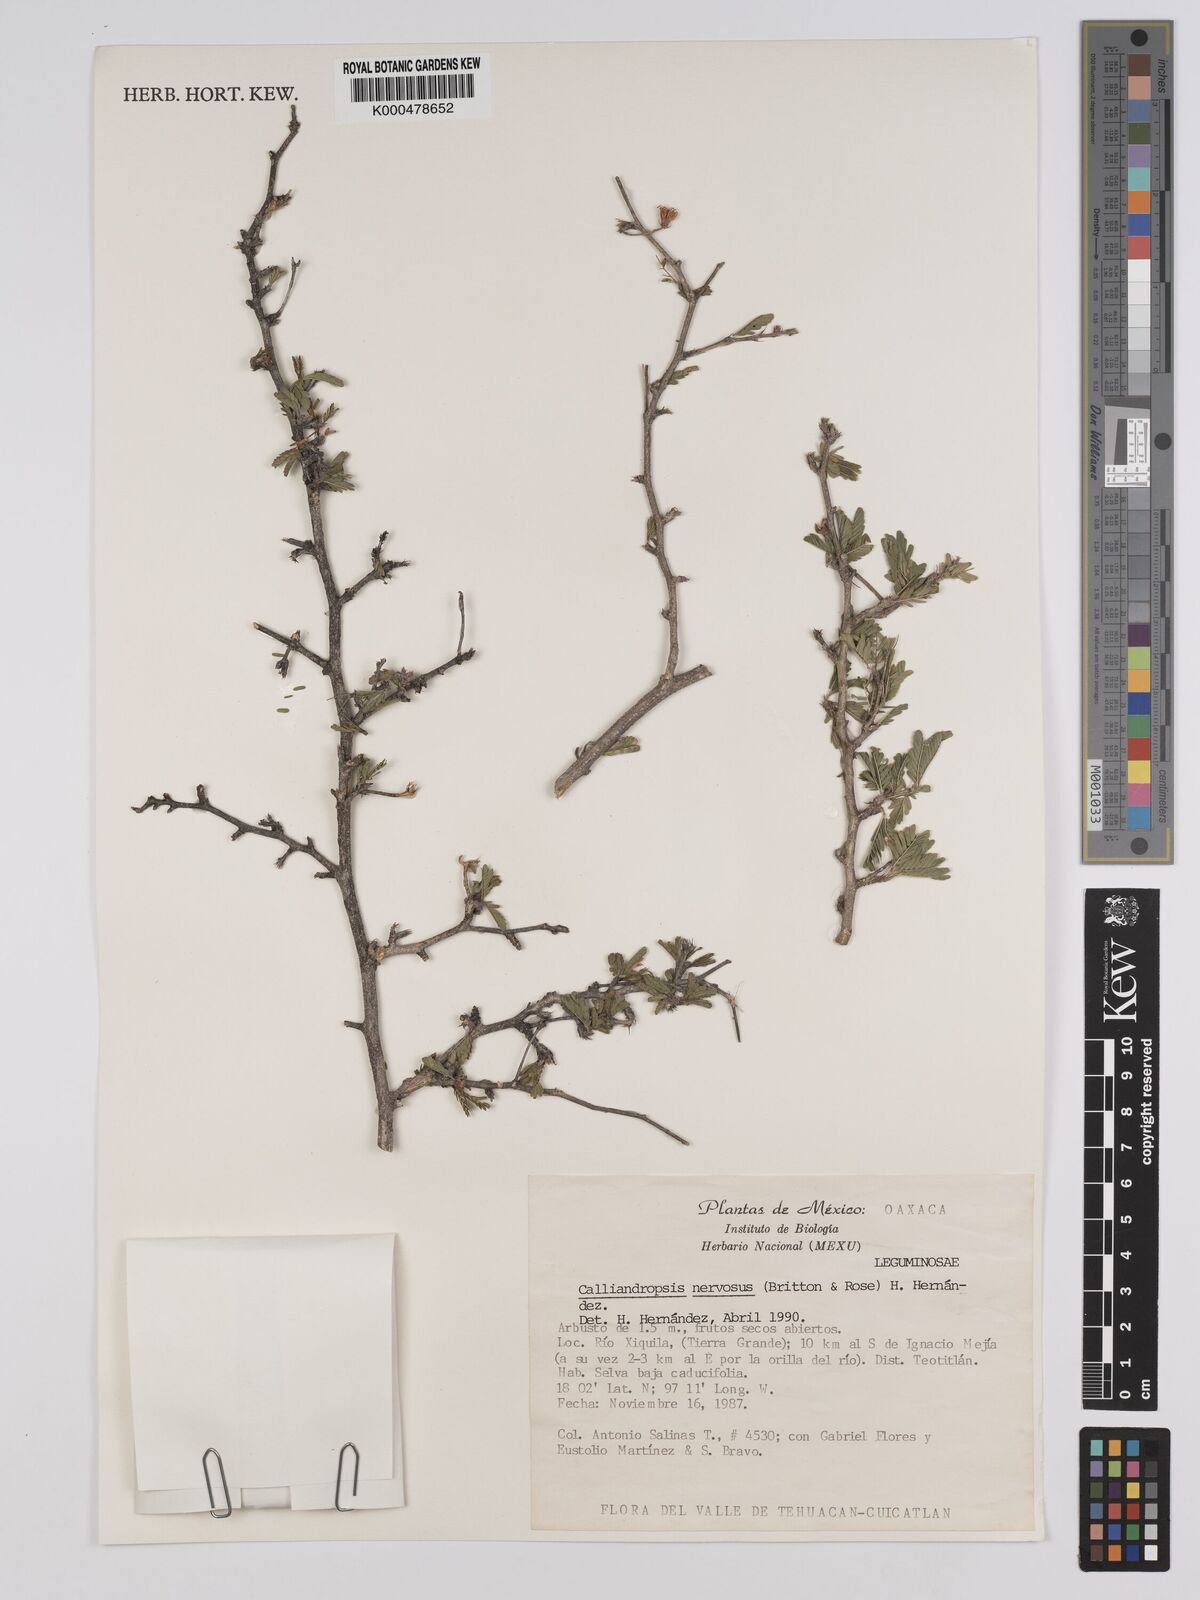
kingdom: Plantae
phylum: Tracheophyta
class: Magnoliopsida
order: Fabales
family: Fabaceae
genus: Calliandropsis
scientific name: Calliandropsis nervosa
